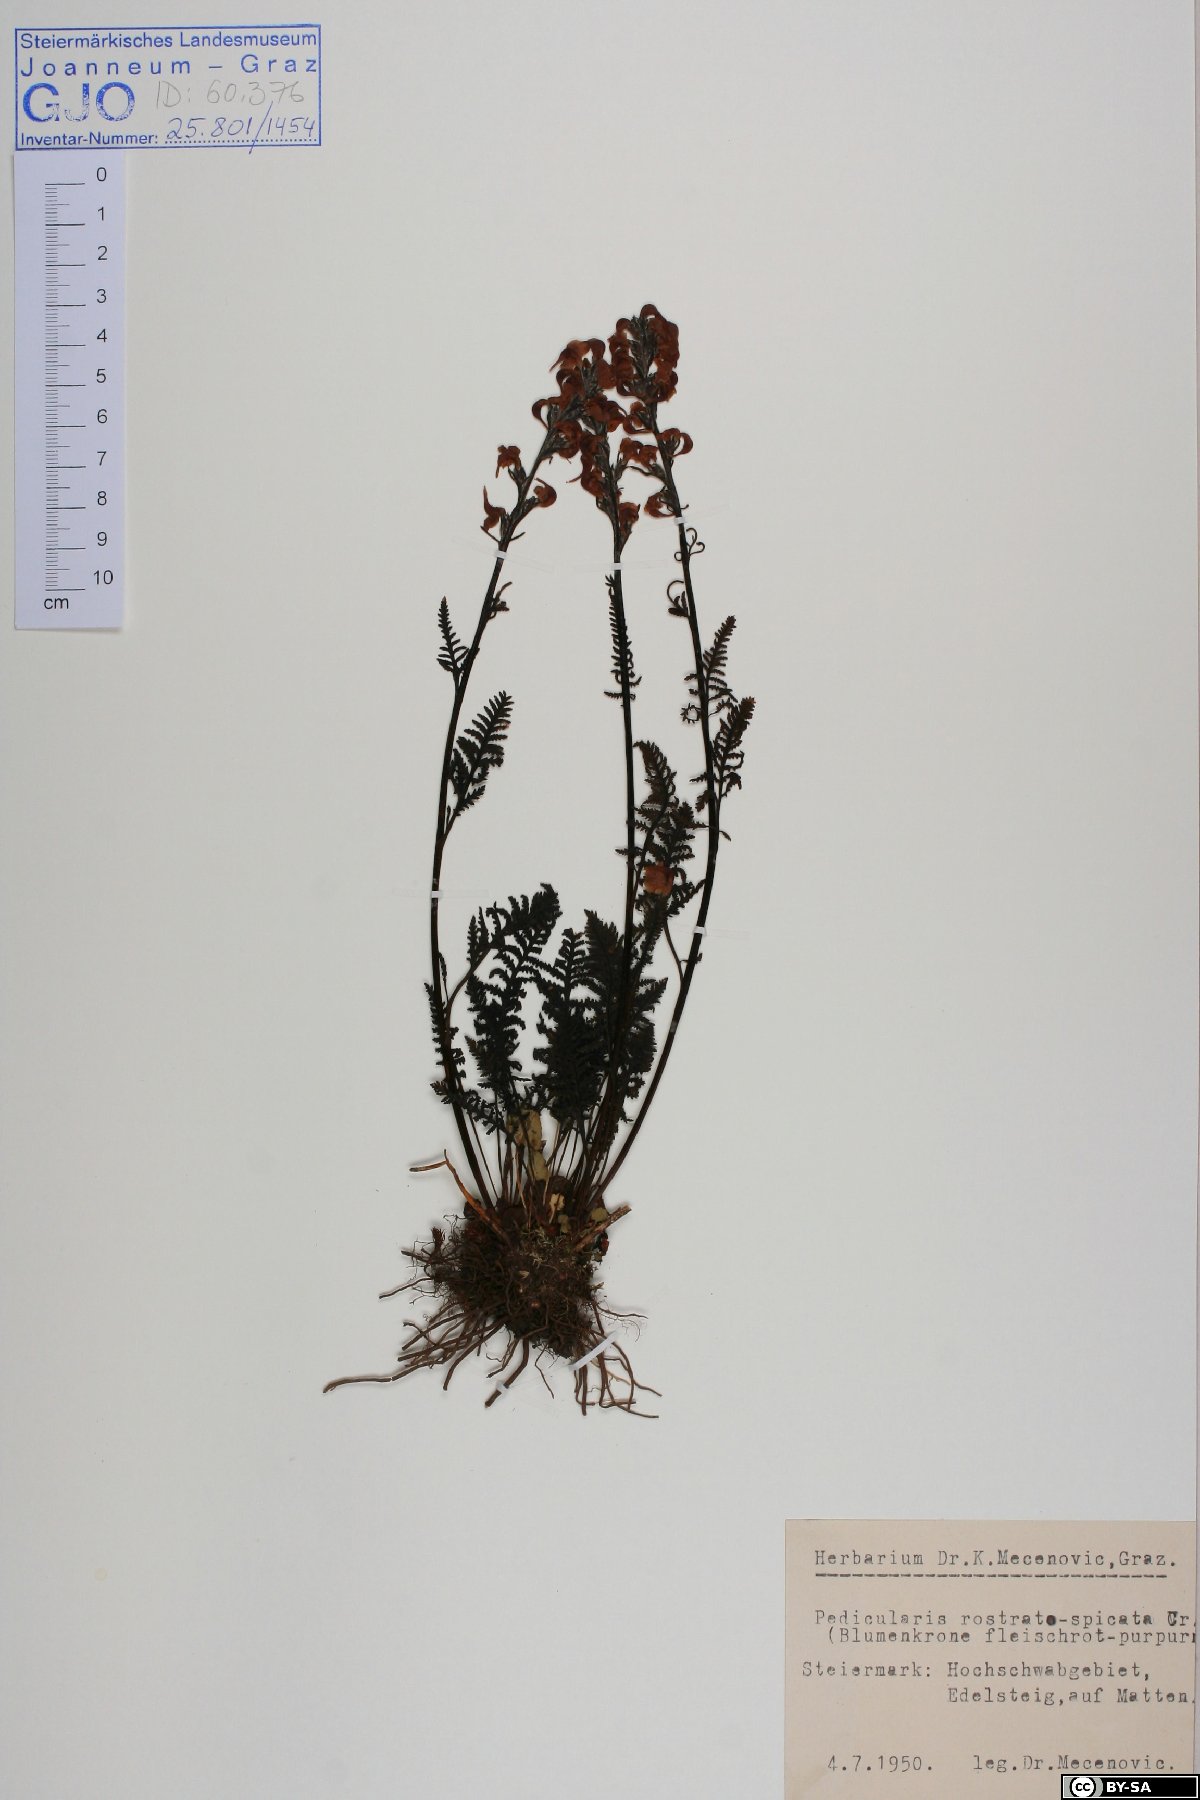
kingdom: Plantae
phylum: Tracheophyta
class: Magnoliopsida
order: Lamiales
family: Orobanchaceae
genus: Pedicularis
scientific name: Pedicularis rostratospicata
